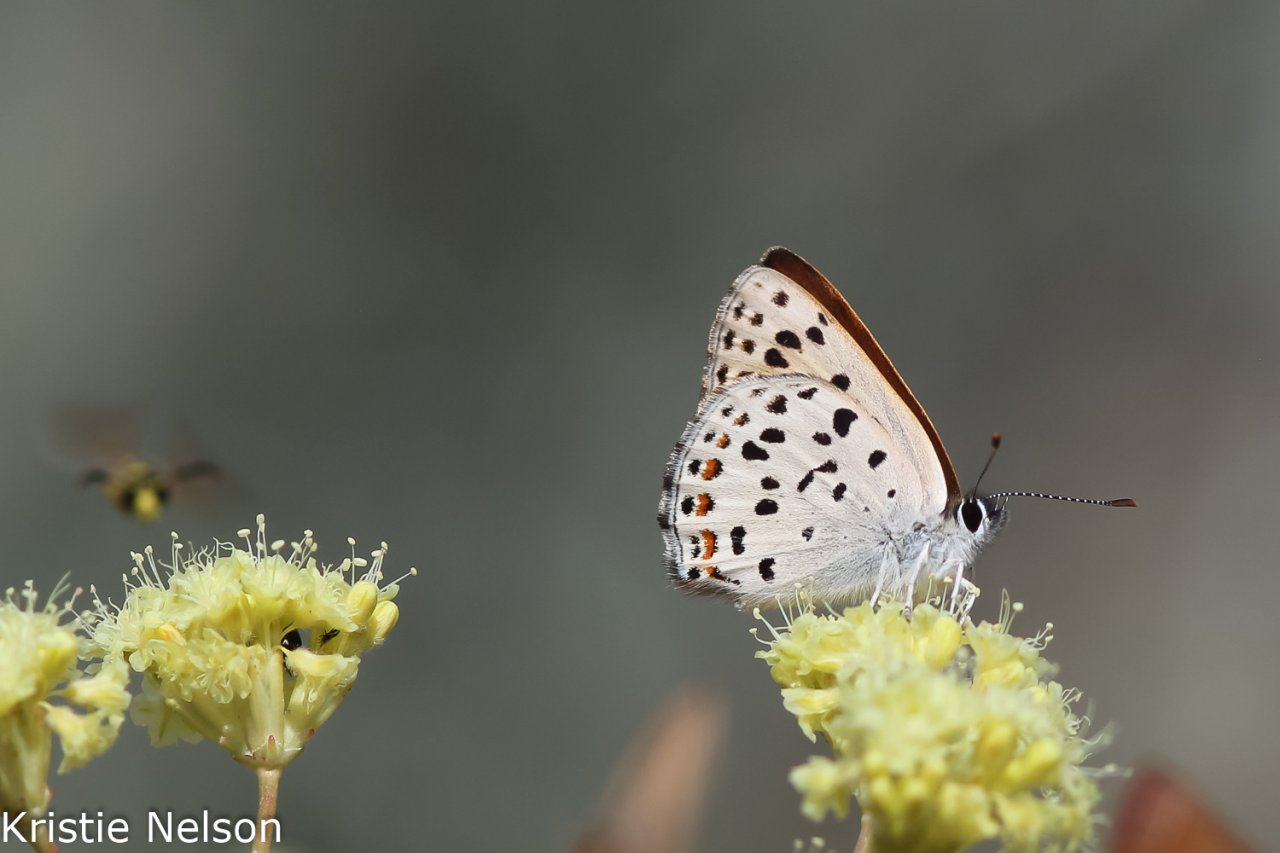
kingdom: Animalia
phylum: Arthropoda
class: Insecta
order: Lepidoptera
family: Lycaenidae
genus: Lycaena
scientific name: Lycaena gorgon
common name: Gorgon Copper
